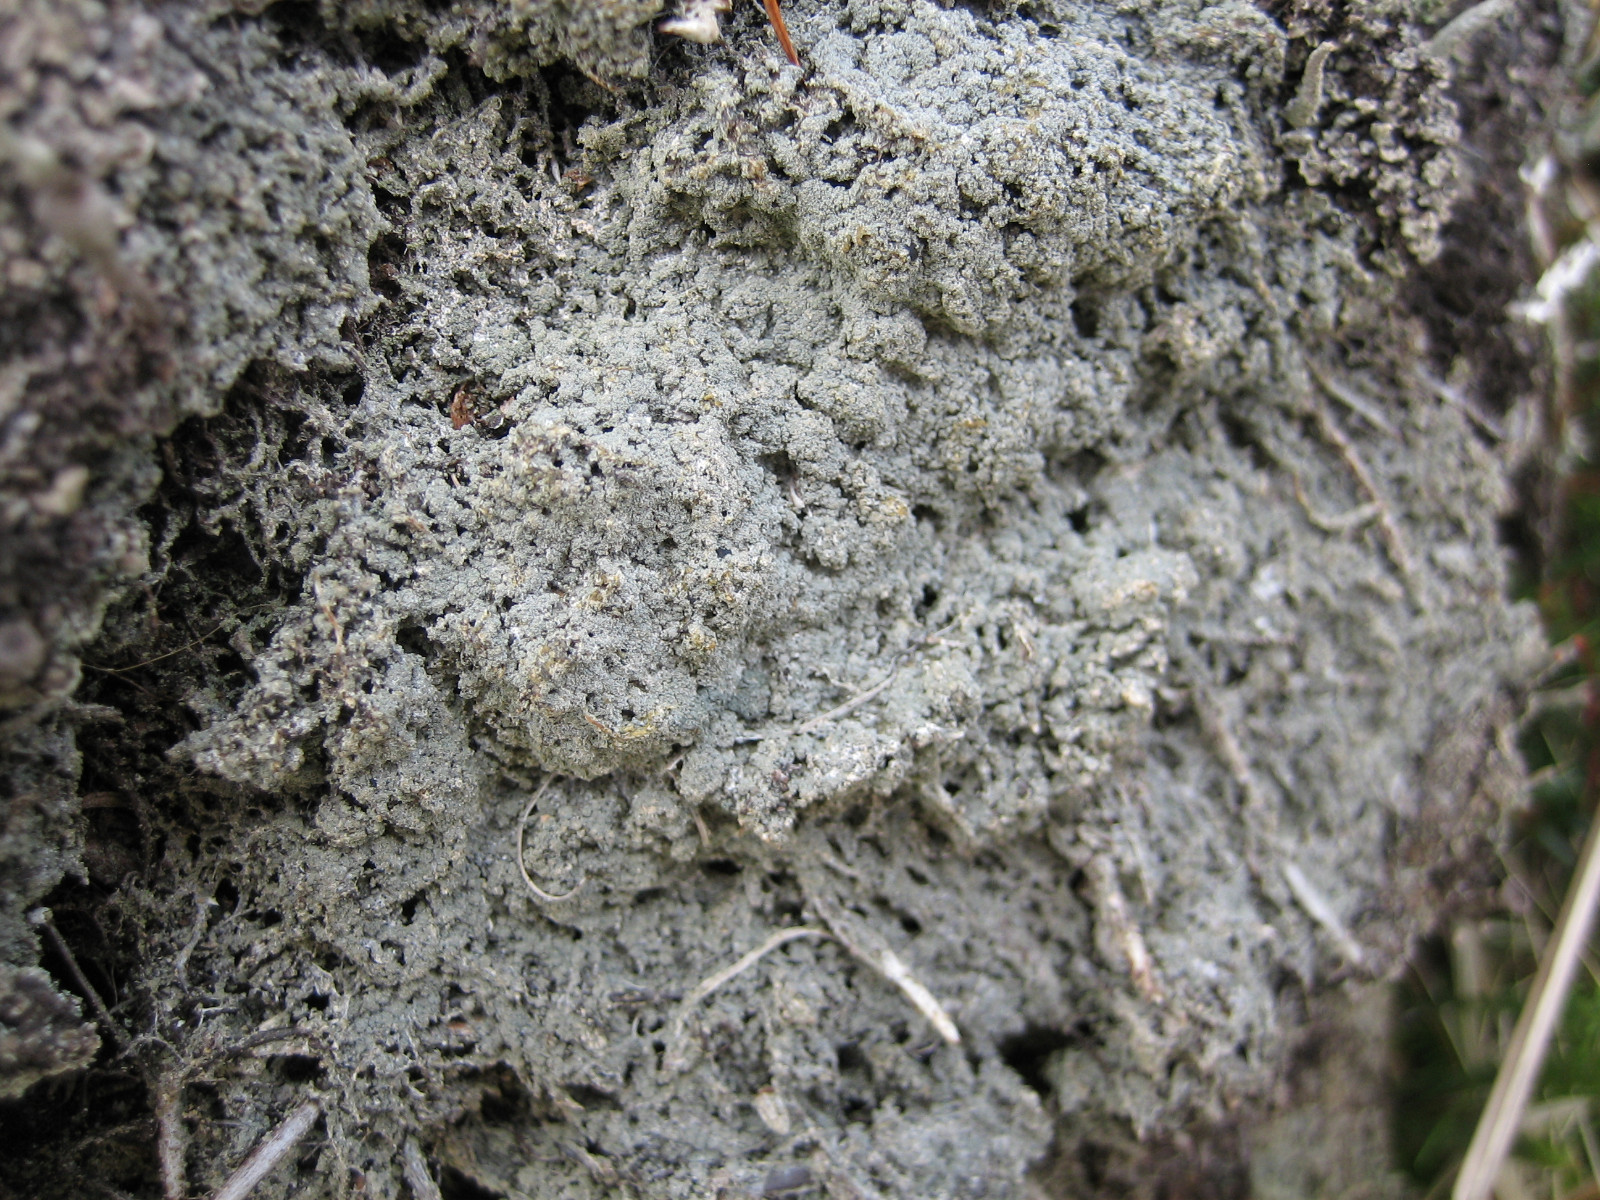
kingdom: Fungi
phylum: Ascomycota
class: Lecanoromycetes
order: Baeomycetales
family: Trapeliaceae
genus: Trapeliopsis
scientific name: Trapeliopsis granulosa
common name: forskelligfarvet skivelav
